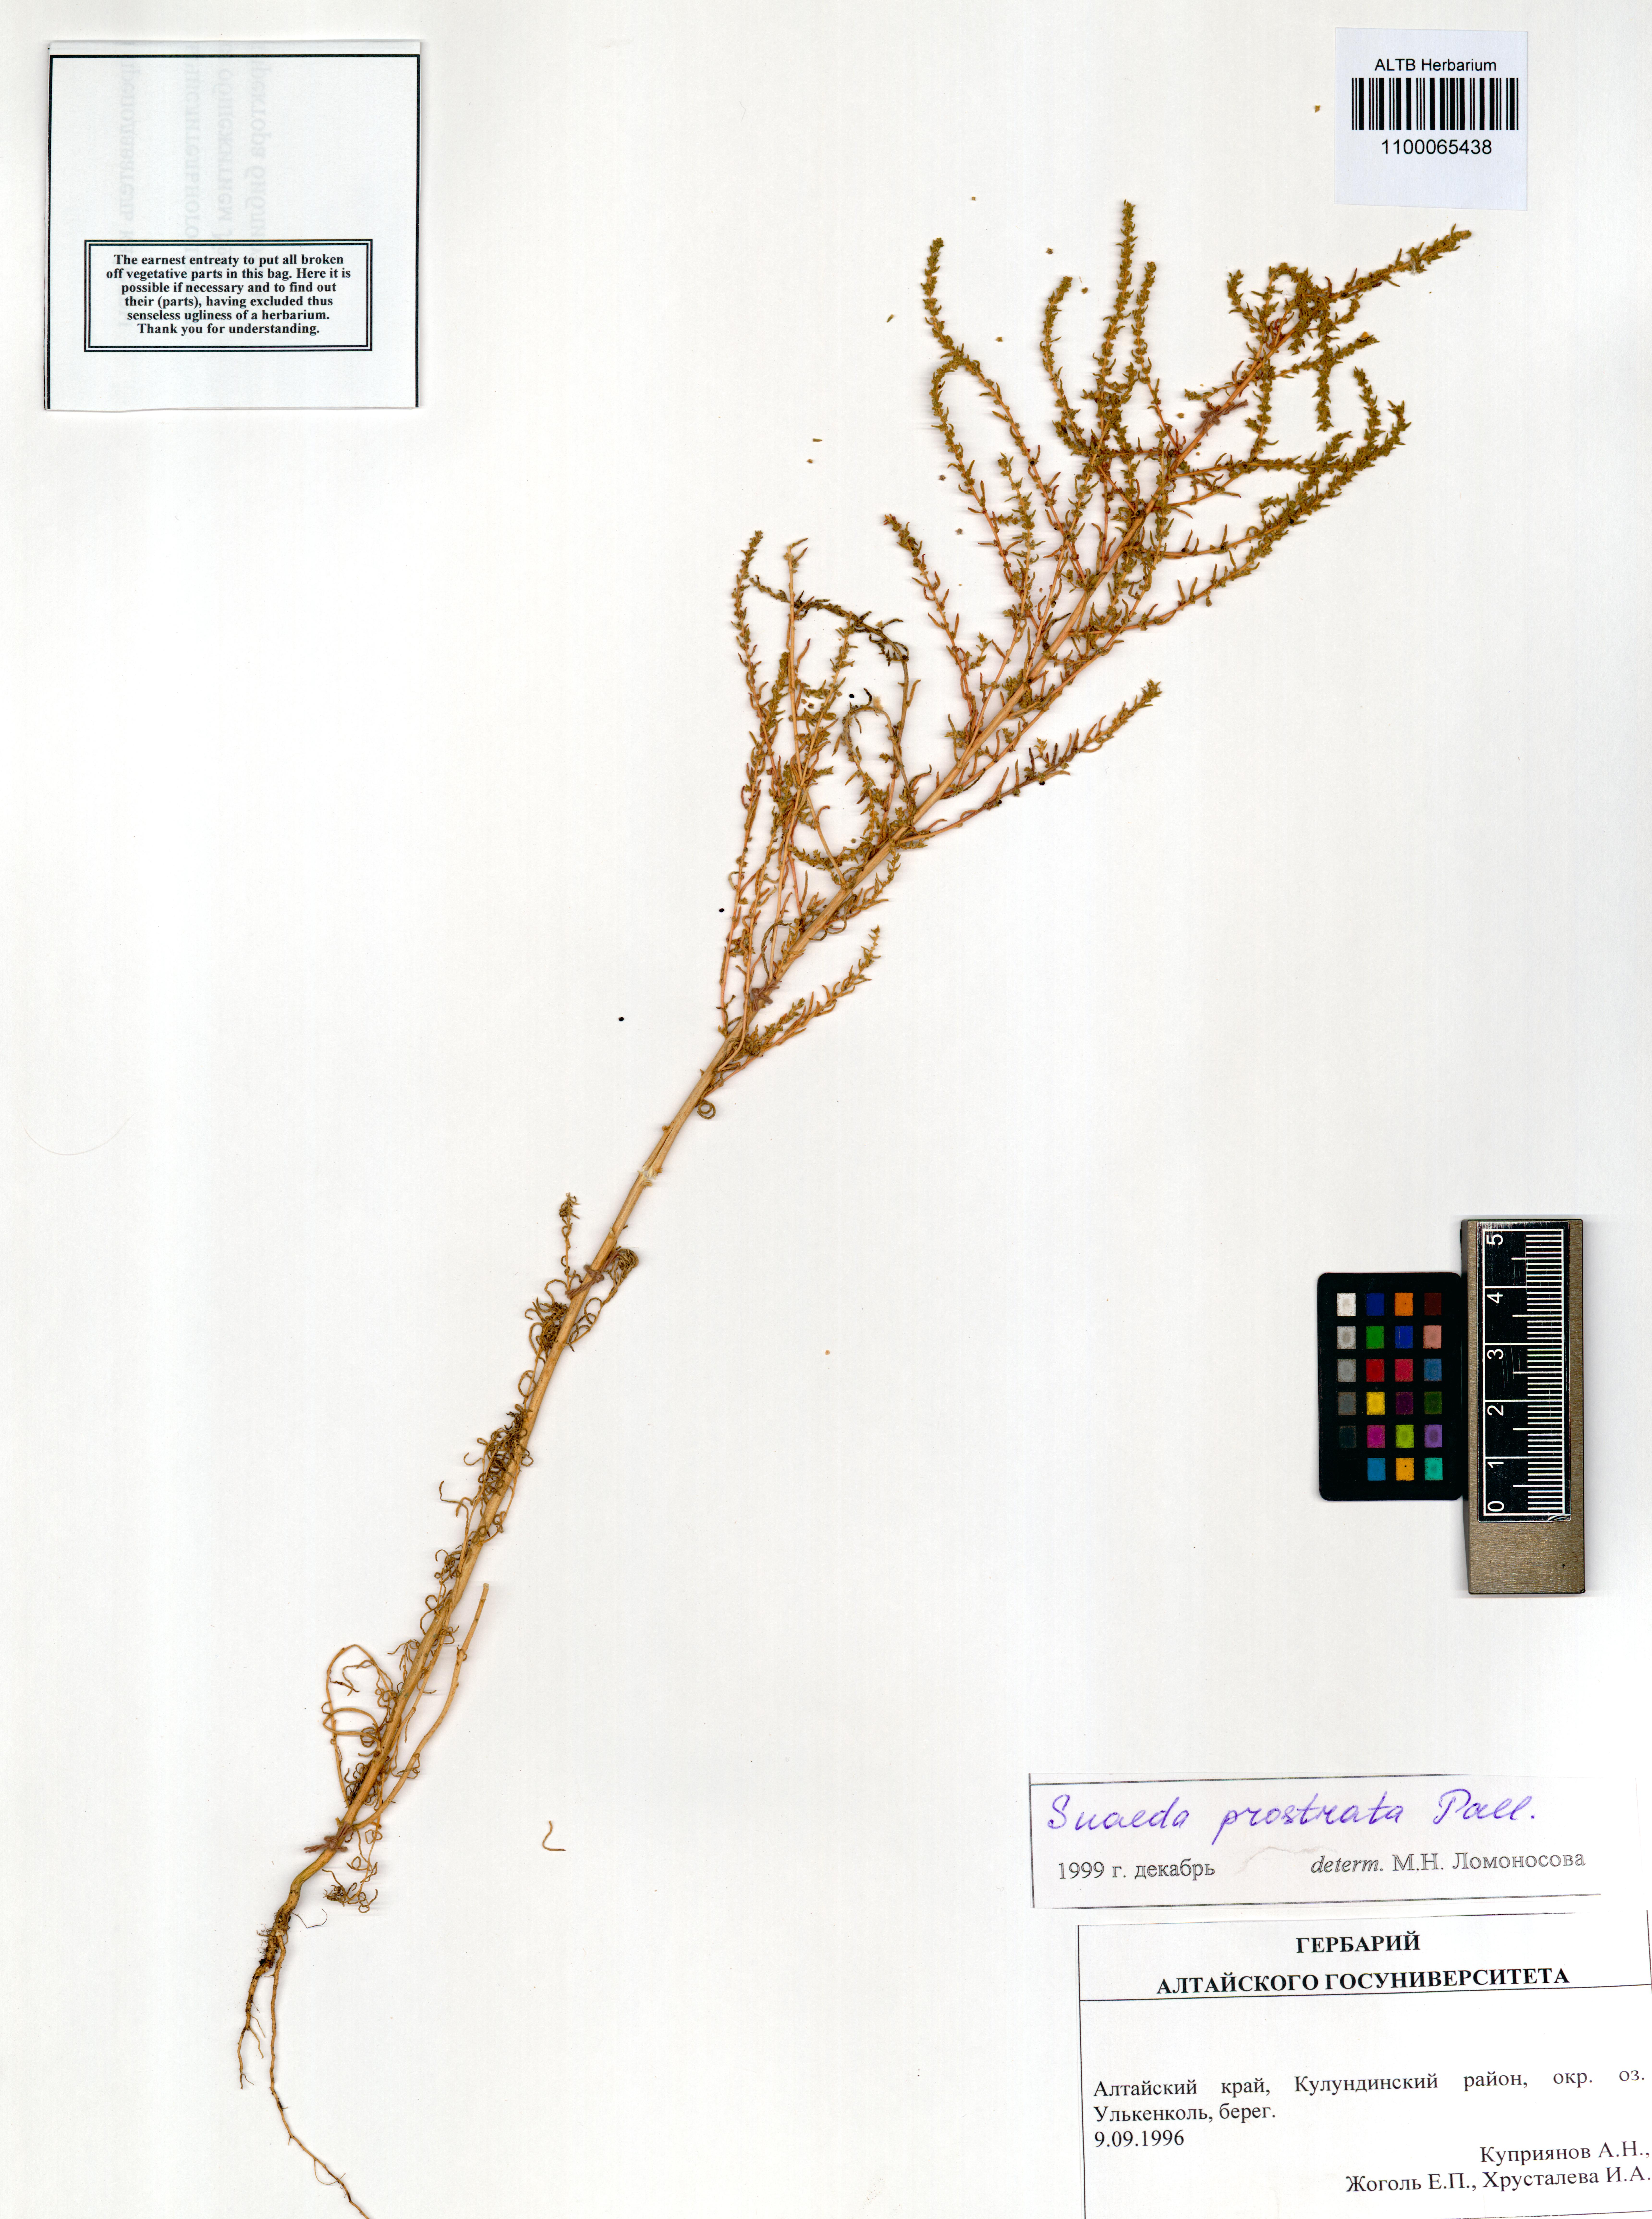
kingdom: Plantae
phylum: Tracheophyta
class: Magnoliopsida
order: Caryophyllales
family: Amaranthaceae
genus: Suaeda
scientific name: Suaeda prostrata
